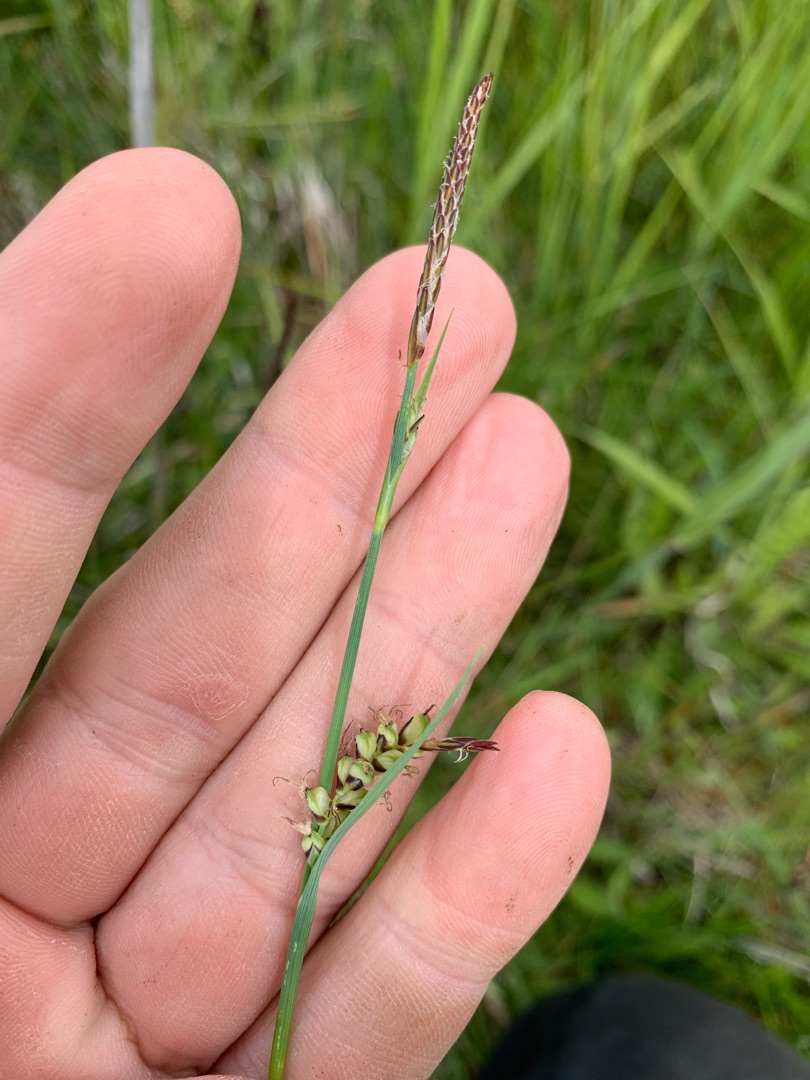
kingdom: Plantae
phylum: Tracheophyta
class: Liliopsida
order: Poales
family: Cyperaceae
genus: Carex
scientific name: Carex panicea
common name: Hirse-star
